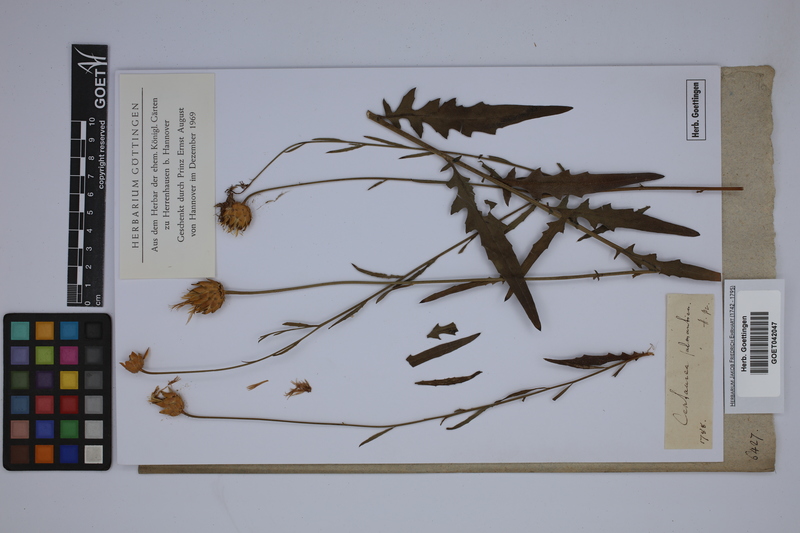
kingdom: Plantae
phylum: Tracheophyta
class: Magnoliopsida
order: Asterales
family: Asteraceae
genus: Mantisalca
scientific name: Mantisalca salmantica
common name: Dagger flower
